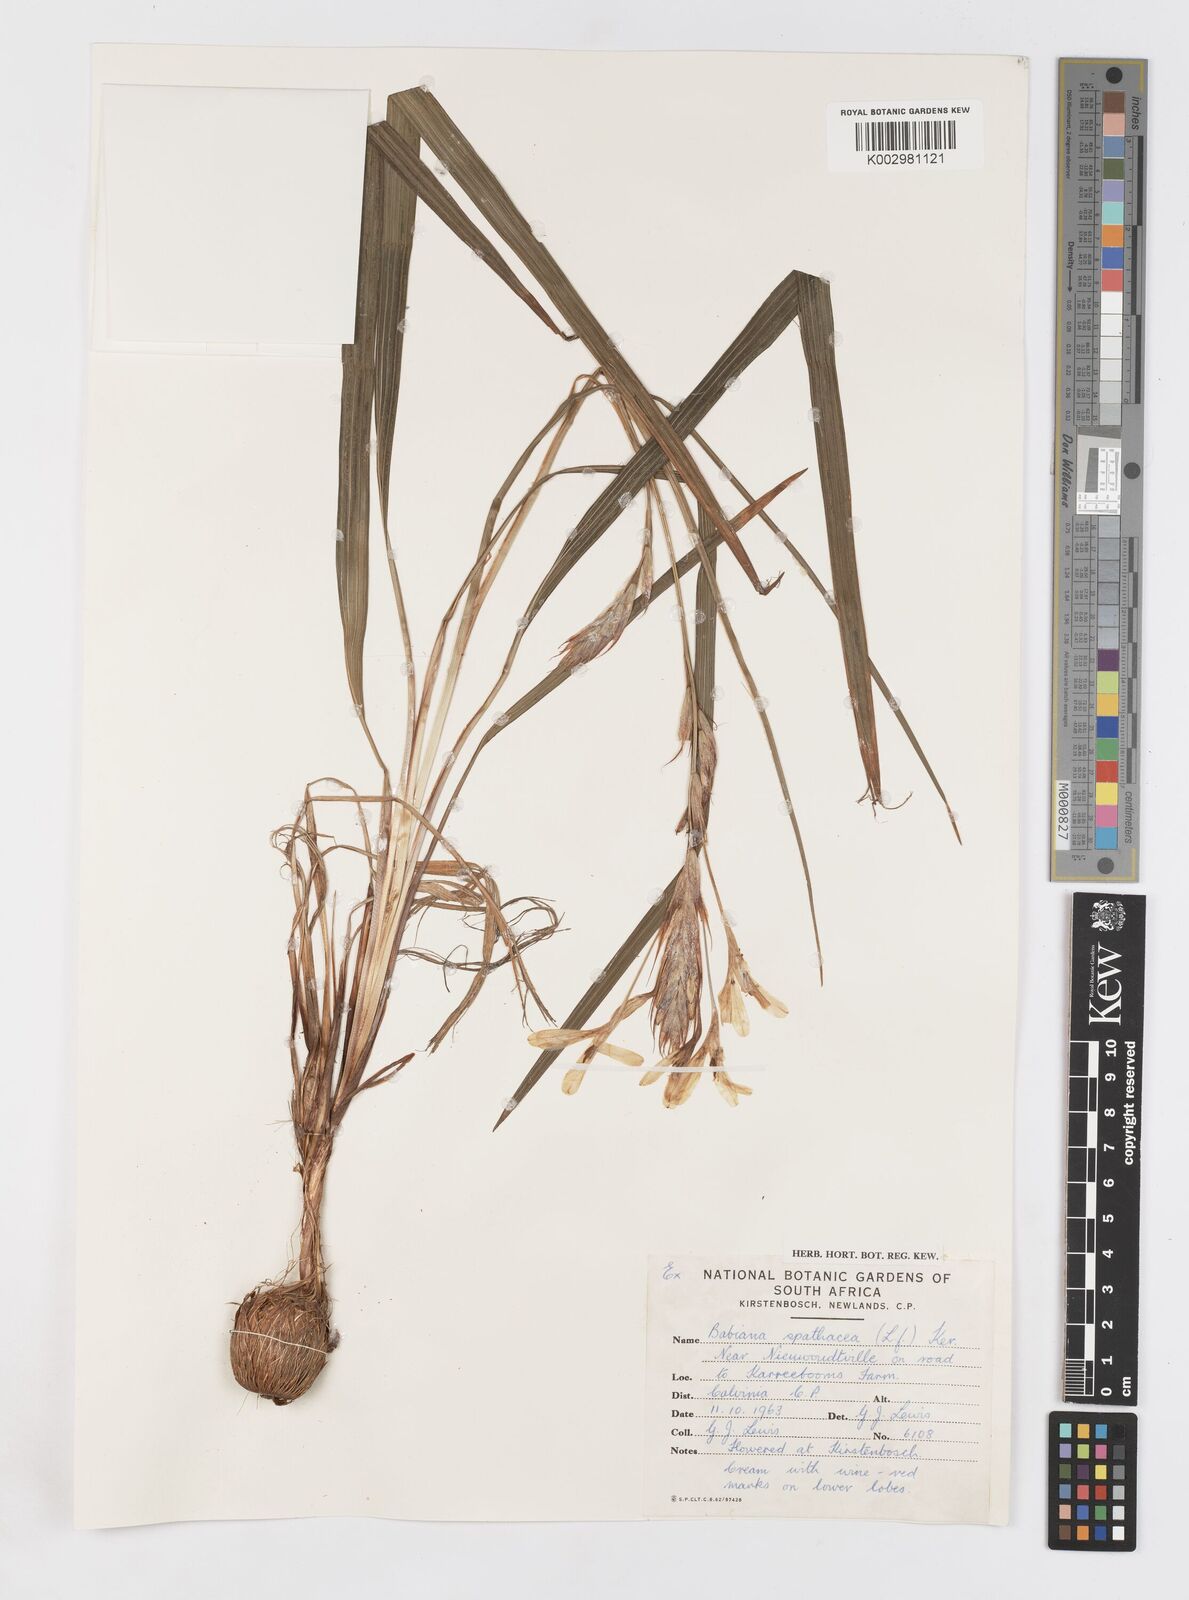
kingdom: Plantae
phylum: Tracheophyta
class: Liliopsida
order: Asparagales
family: Iridaceae
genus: Babiana
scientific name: Babiana spathacea
